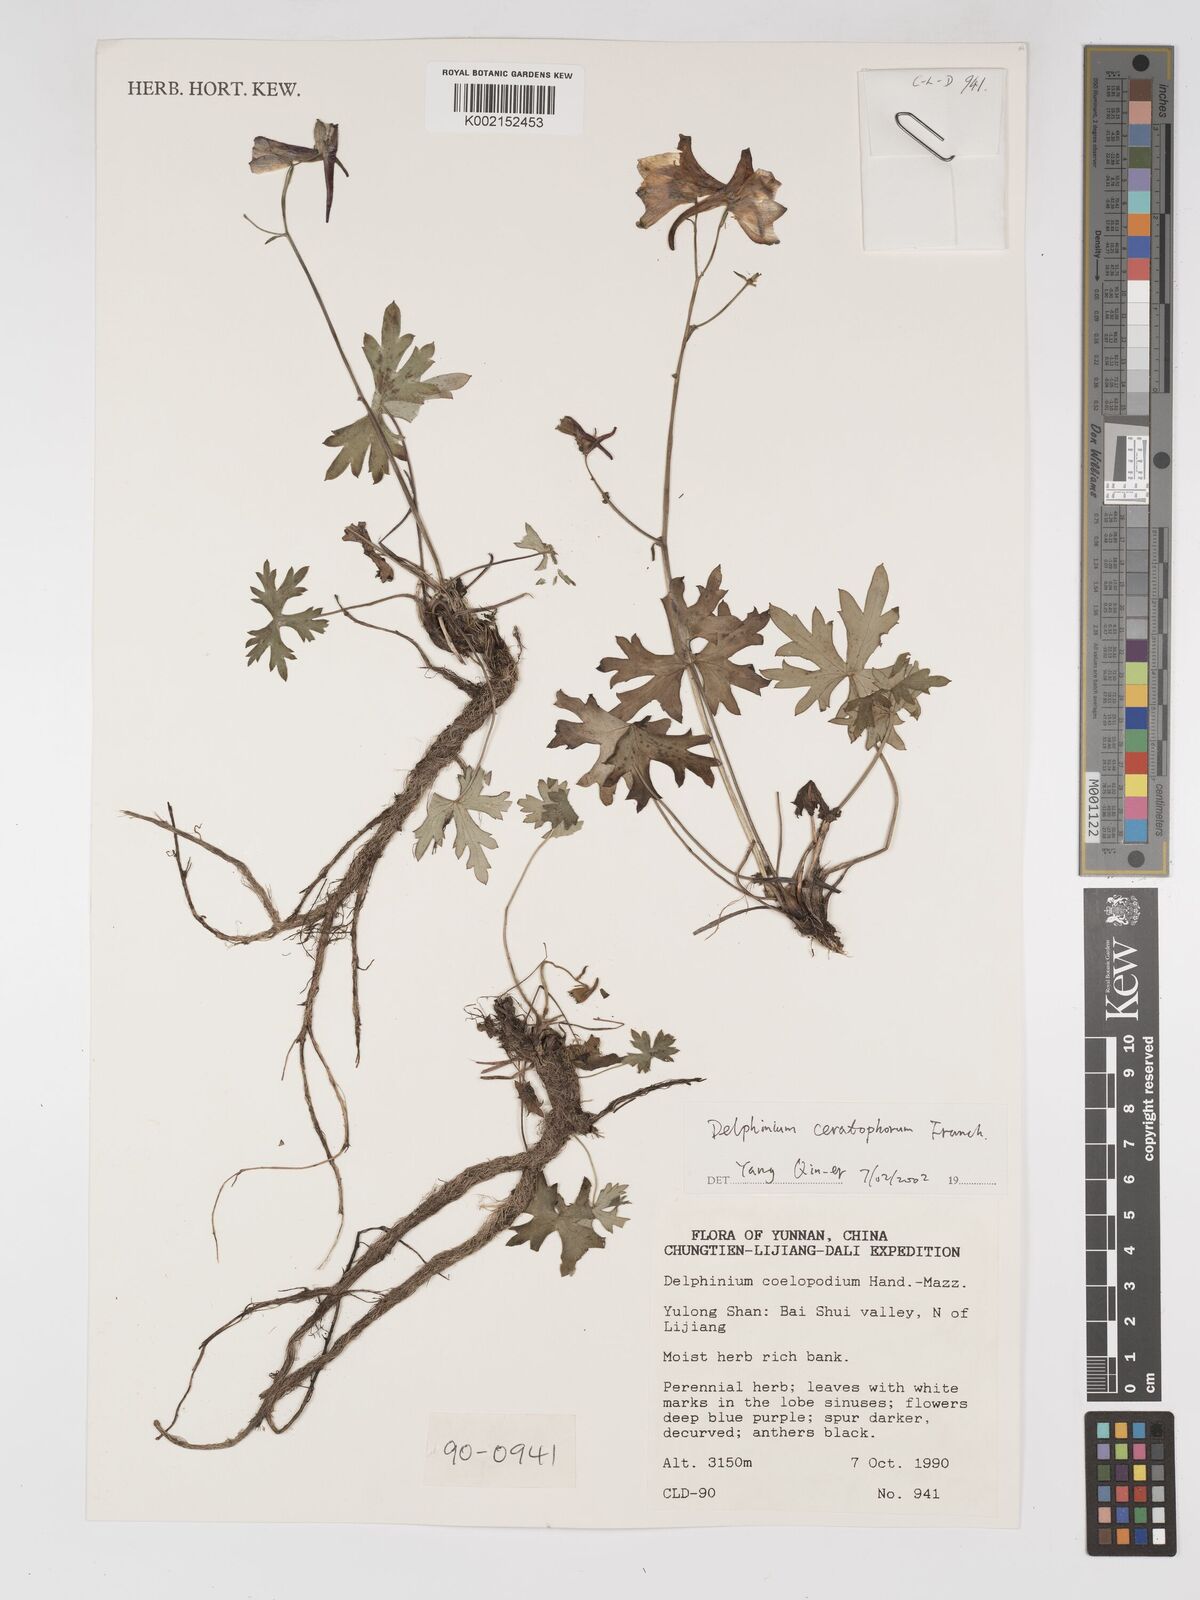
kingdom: Plantae
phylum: Tracheophyta
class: Magnoliopsida
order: Ranunculales
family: Ranunculaceae
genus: Delphinium
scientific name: Delphinium ceratophorum
